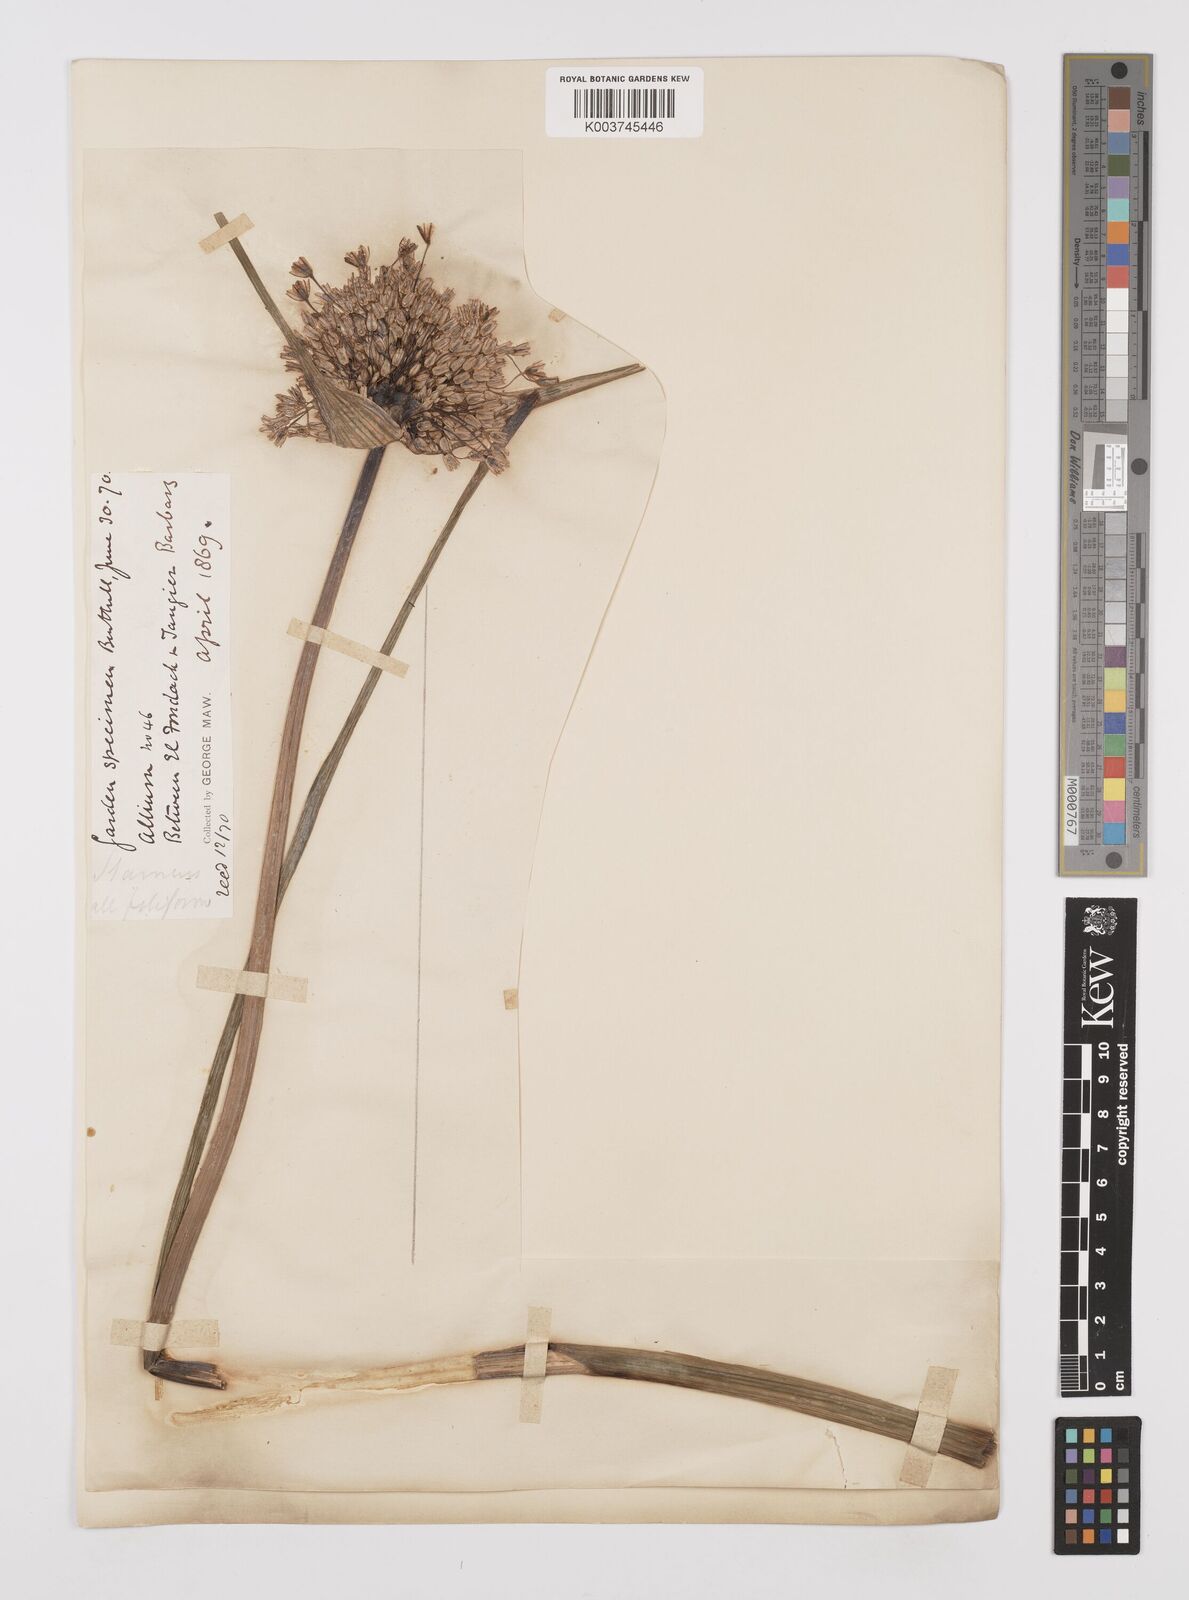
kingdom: Plantae
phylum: Tracheophyta
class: Liliopsida
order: Asparagales
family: Amaryllidaceae
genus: Allium
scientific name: Allium paniculatum
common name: Pale garlic
